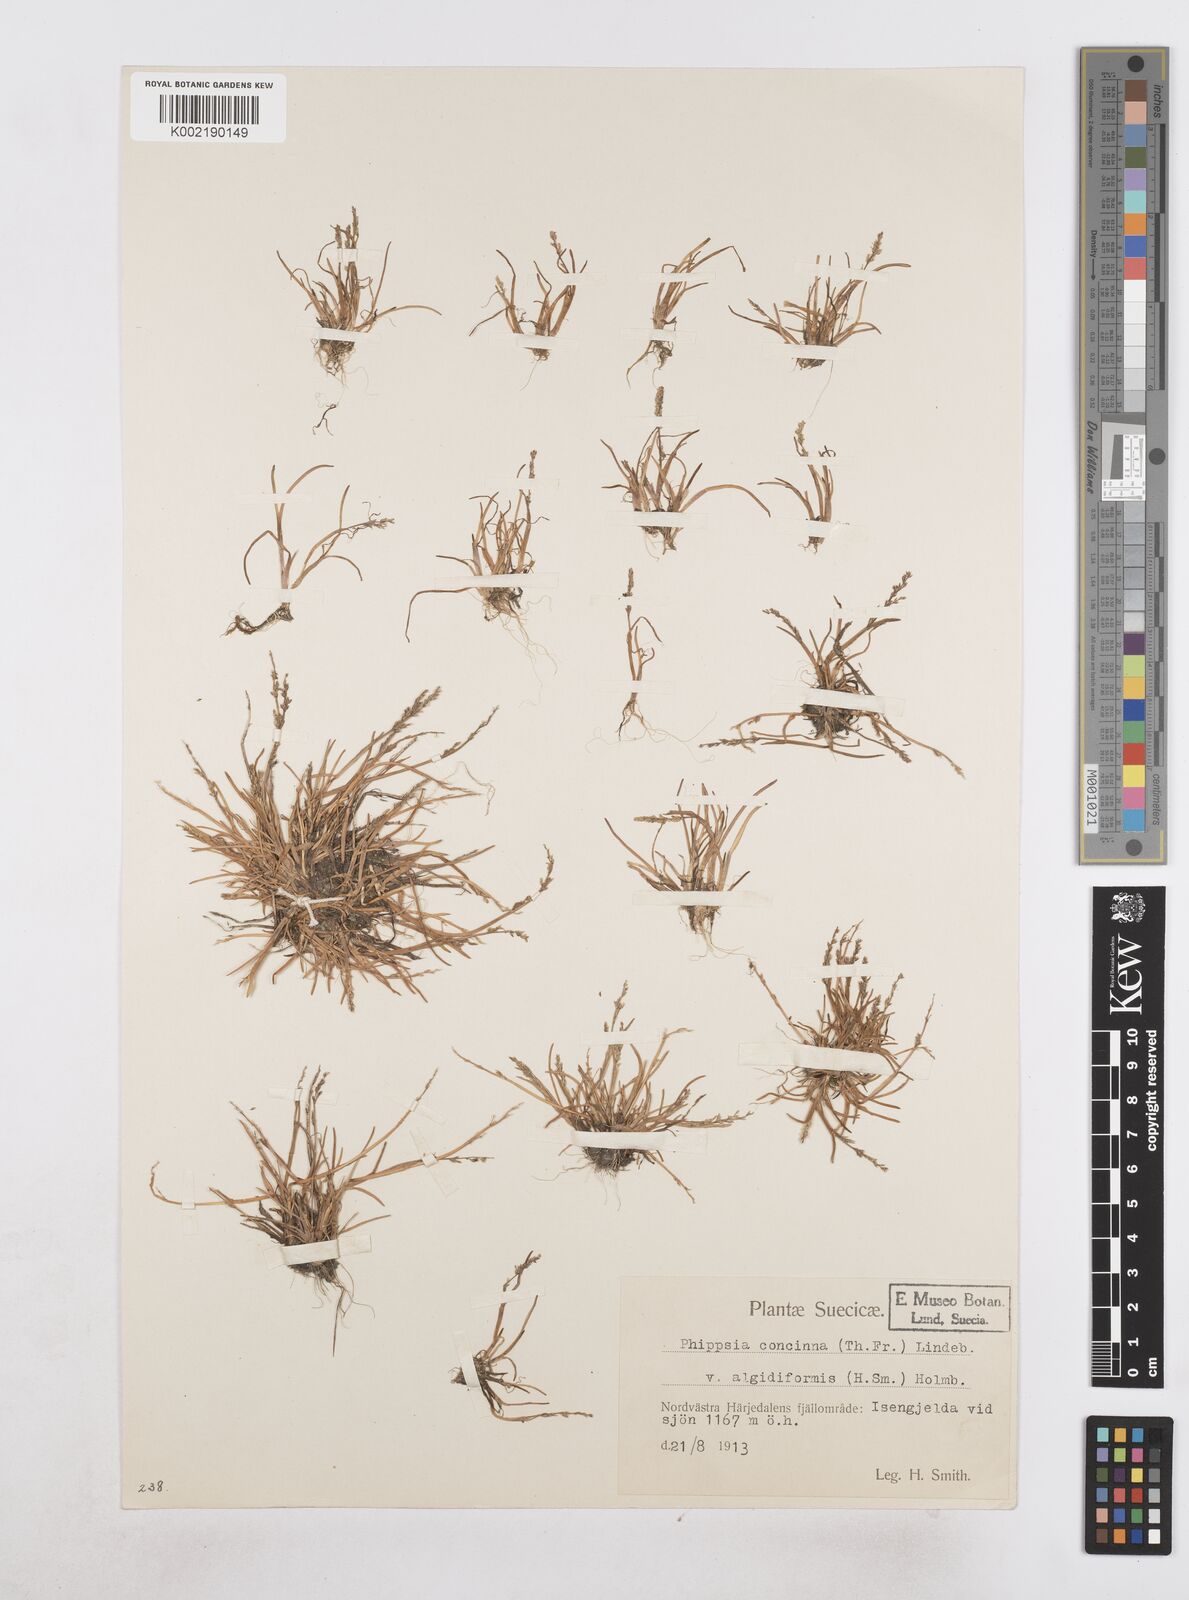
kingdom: Plantae
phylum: Tracheophyta
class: Liliopsida
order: Poales
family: Poaceae
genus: Phippsia
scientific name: Phippsia concinna
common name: Snowgrass
